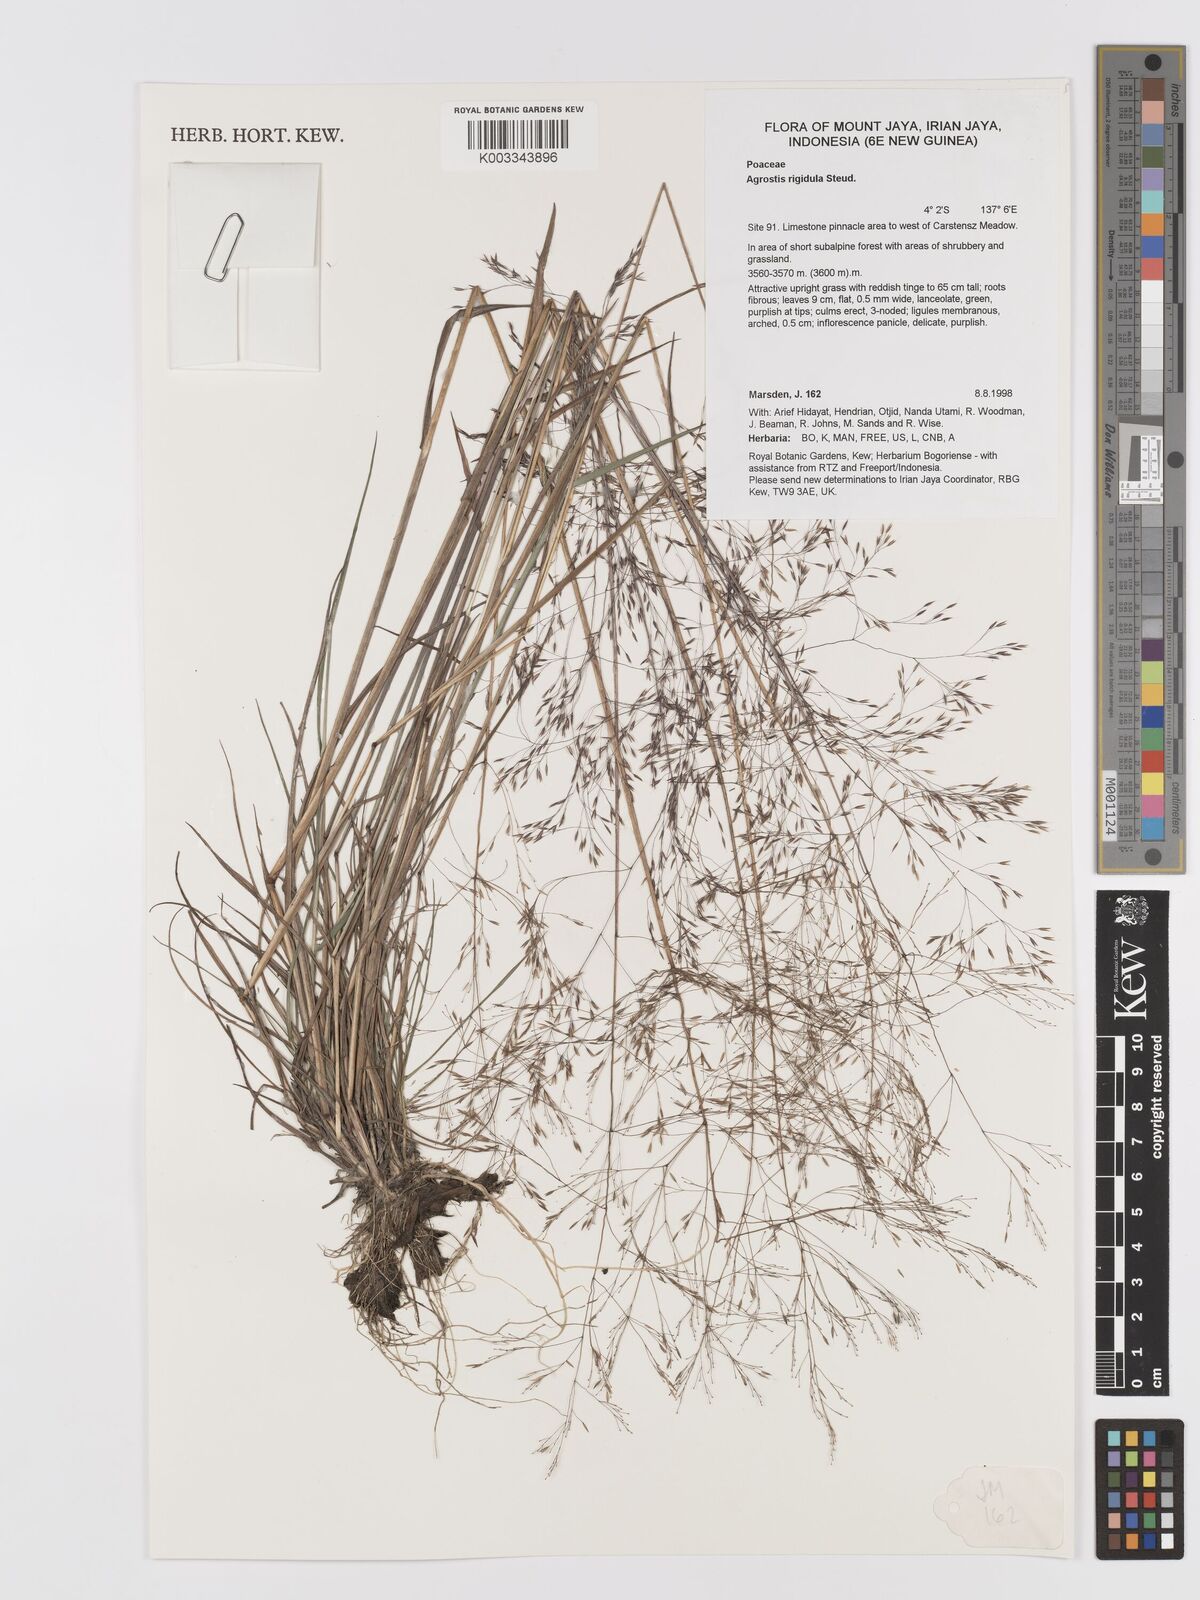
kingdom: Plantae
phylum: Tracheophyta
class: Liliopsida
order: Poales
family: Poaceae
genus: Agrostis
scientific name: Agrostis infirma
